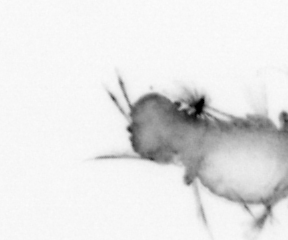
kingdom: Animalia
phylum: Annelida
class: Polychaeta
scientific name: Polychaeta
